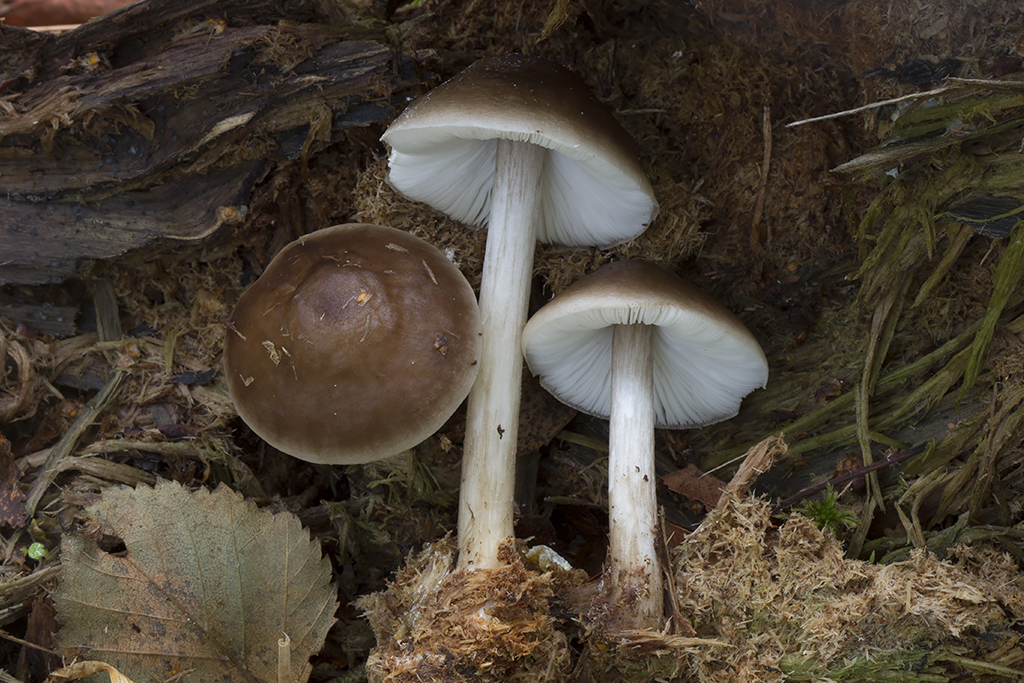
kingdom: Fungi
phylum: Basidiomycota
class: Agaricomycetes
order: Agaricales
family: Pluteaceae
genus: Pluteus
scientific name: Pluteus hongoi
